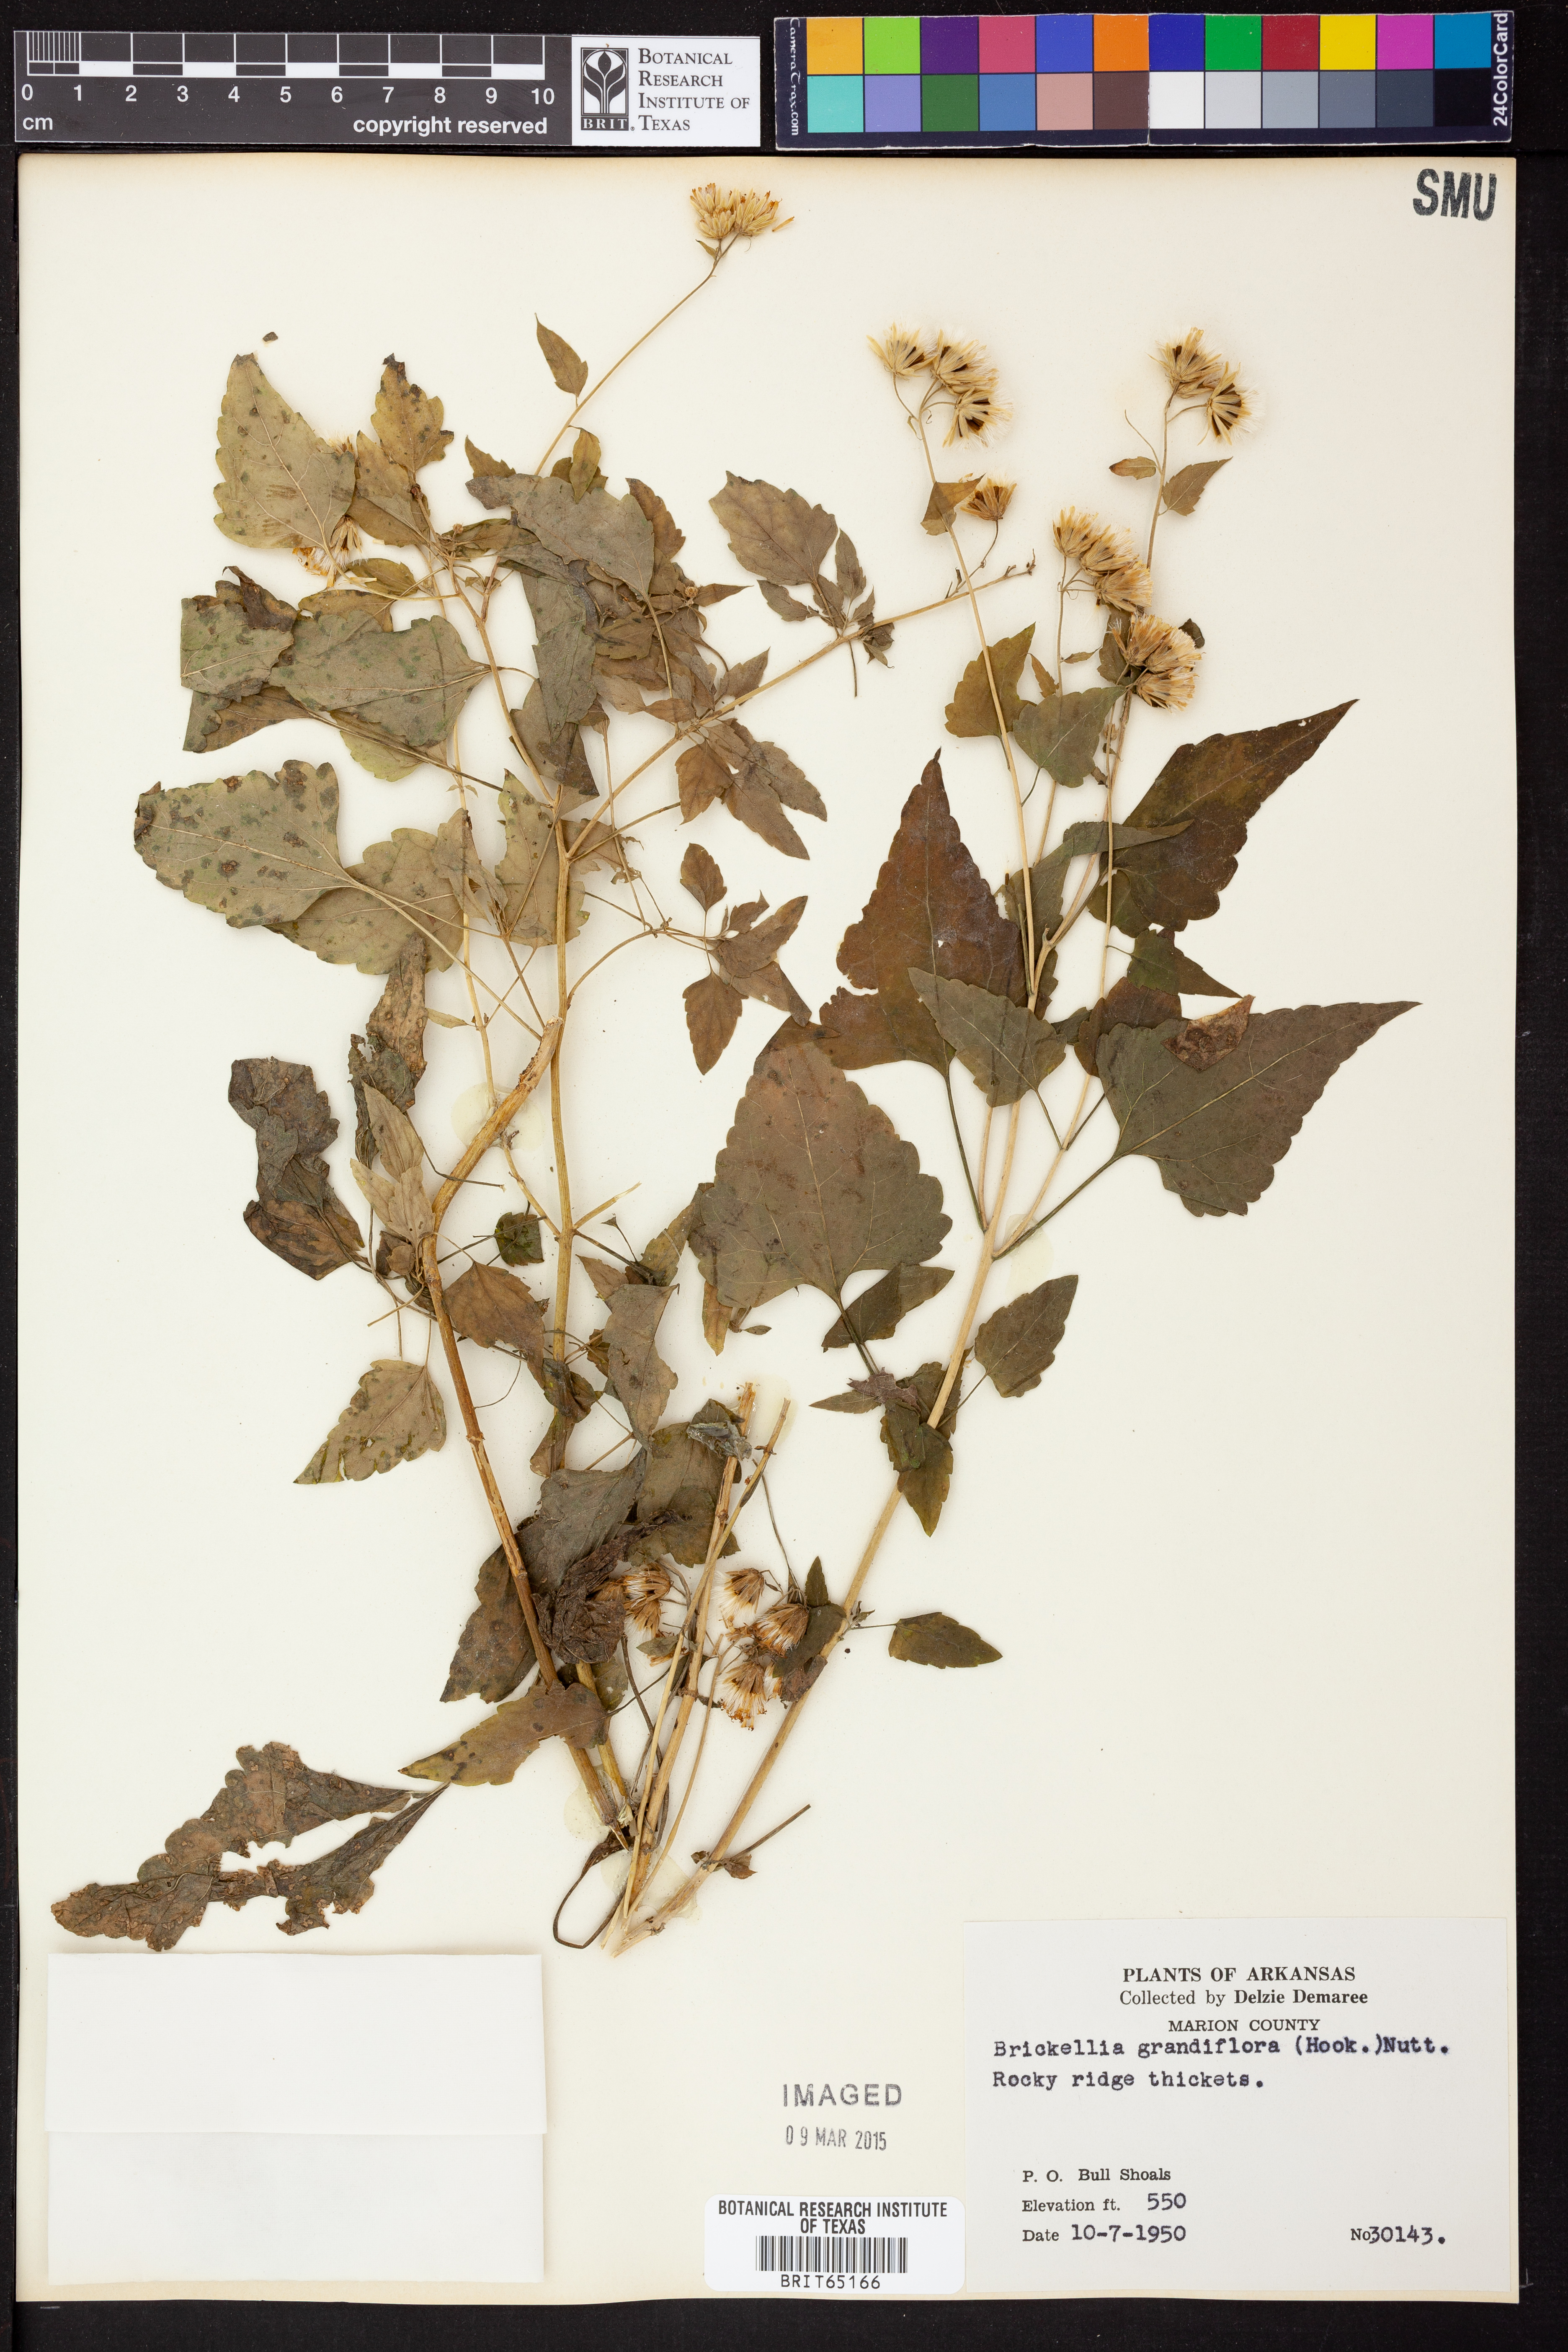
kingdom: Plantae
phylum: Tracheophyta
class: Magnoliopsida
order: Asterales
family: Asteraceae
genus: Brickellia
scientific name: Brickellia grandiflora
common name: Large-flowered brickellia
